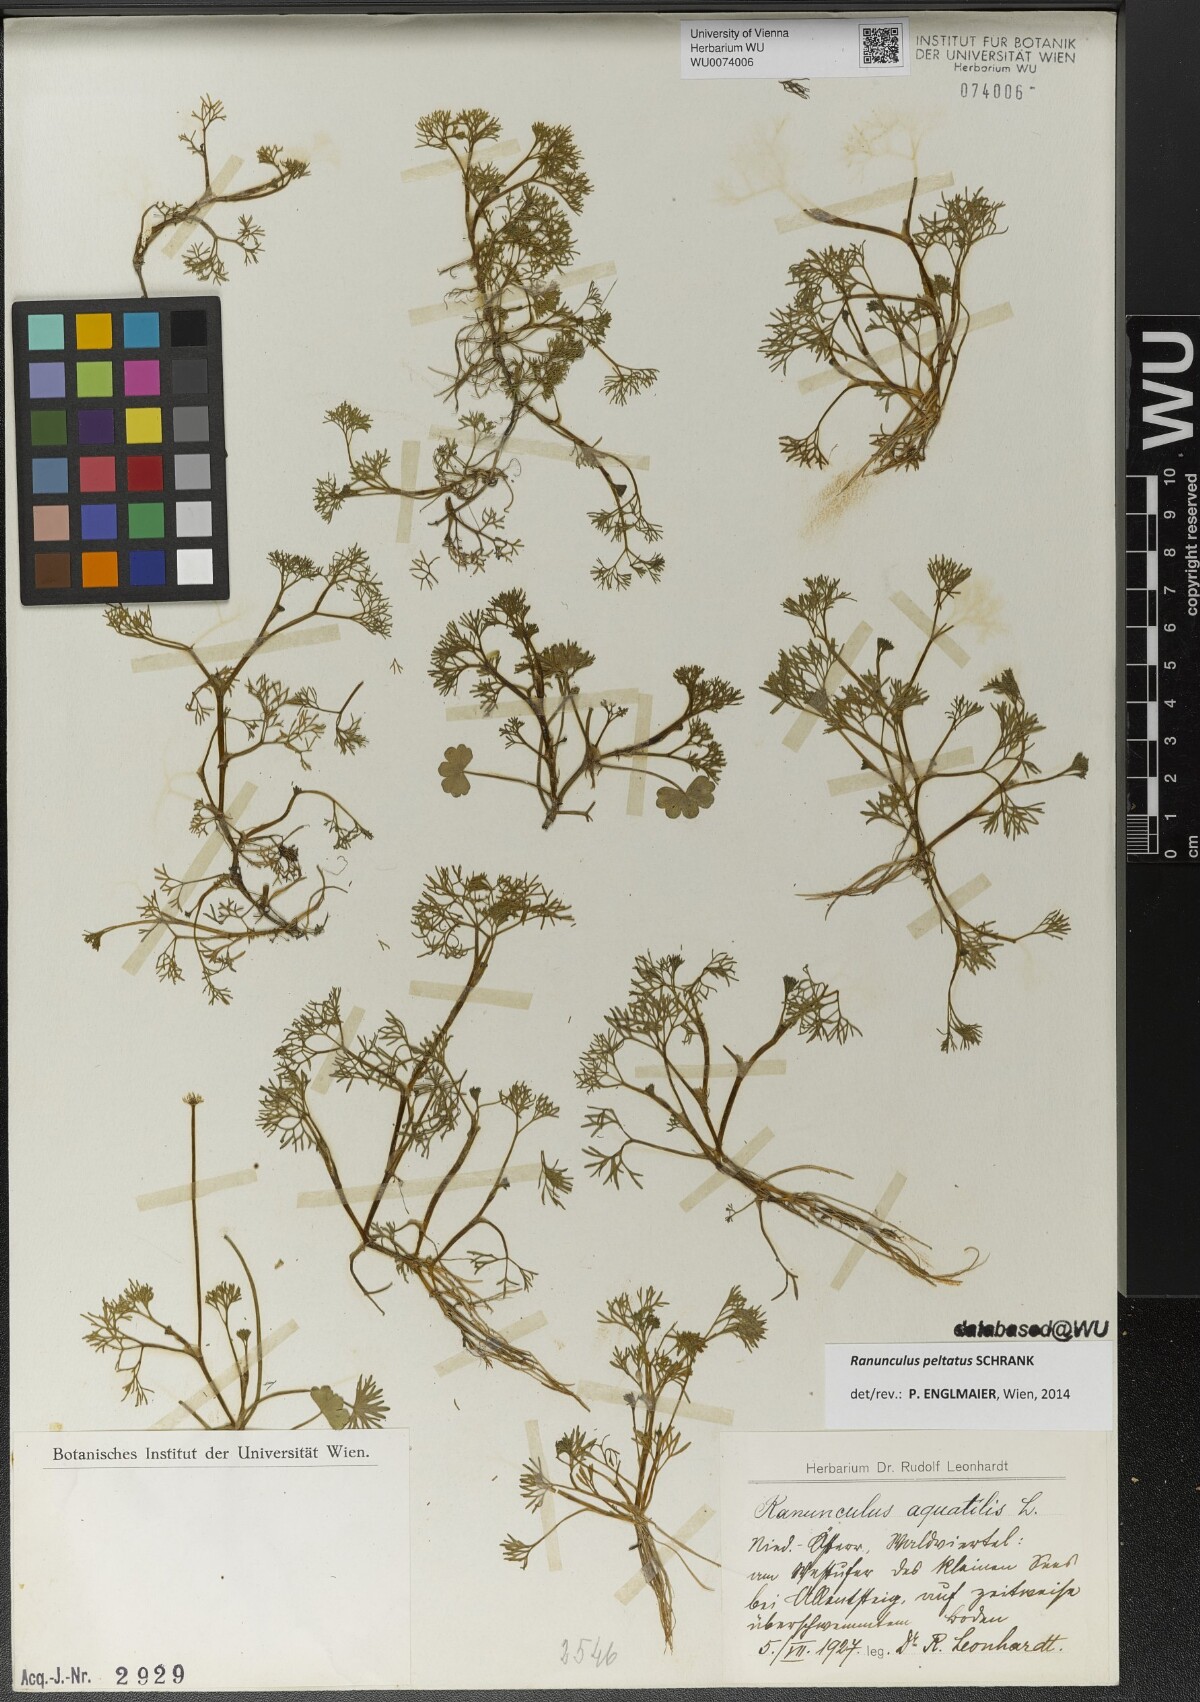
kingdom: Plantae
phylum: Tracheophyta
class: Magnoliopsida
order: Ranunculales
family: Ranunculaceae
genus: Ranunculus
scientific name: Ranunculus peltatus
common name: Pond water-crowfoot
